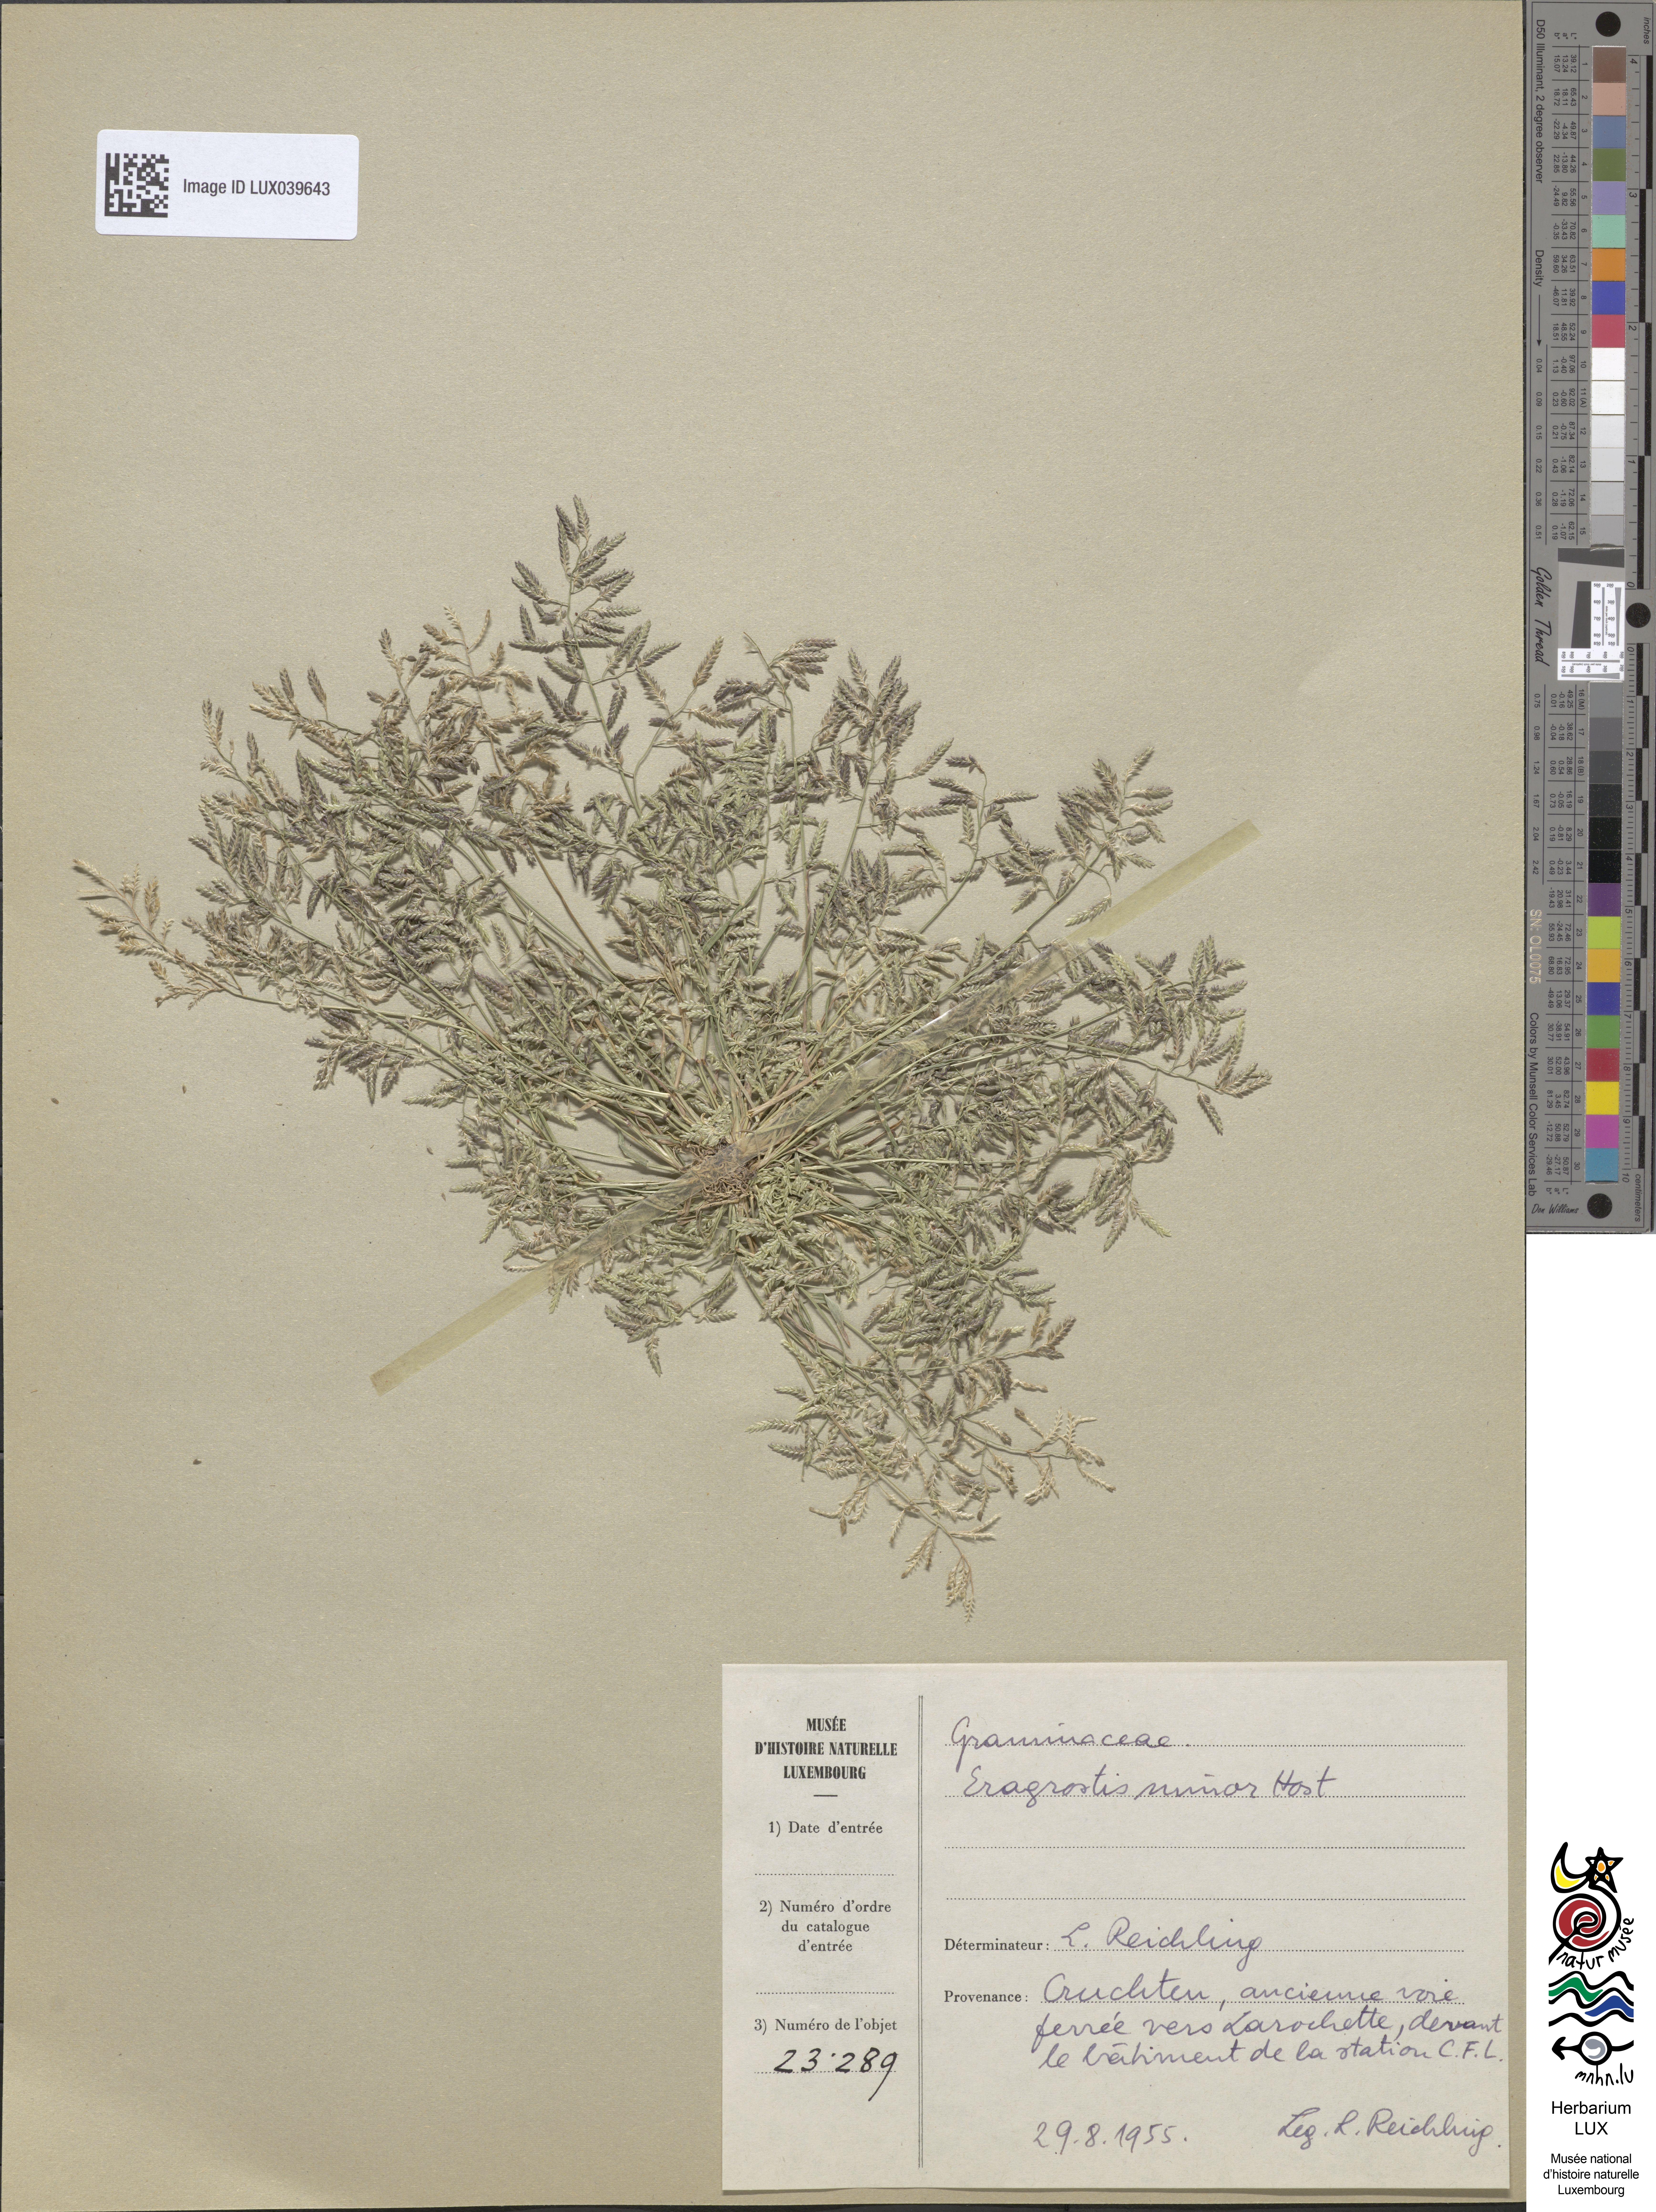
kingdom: Plantae
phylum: Tracheophyta
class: Liliopsida
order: Poales
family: Poaceae
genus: Eragrostis
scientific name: Eragrostis minor
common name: Small love-grass
